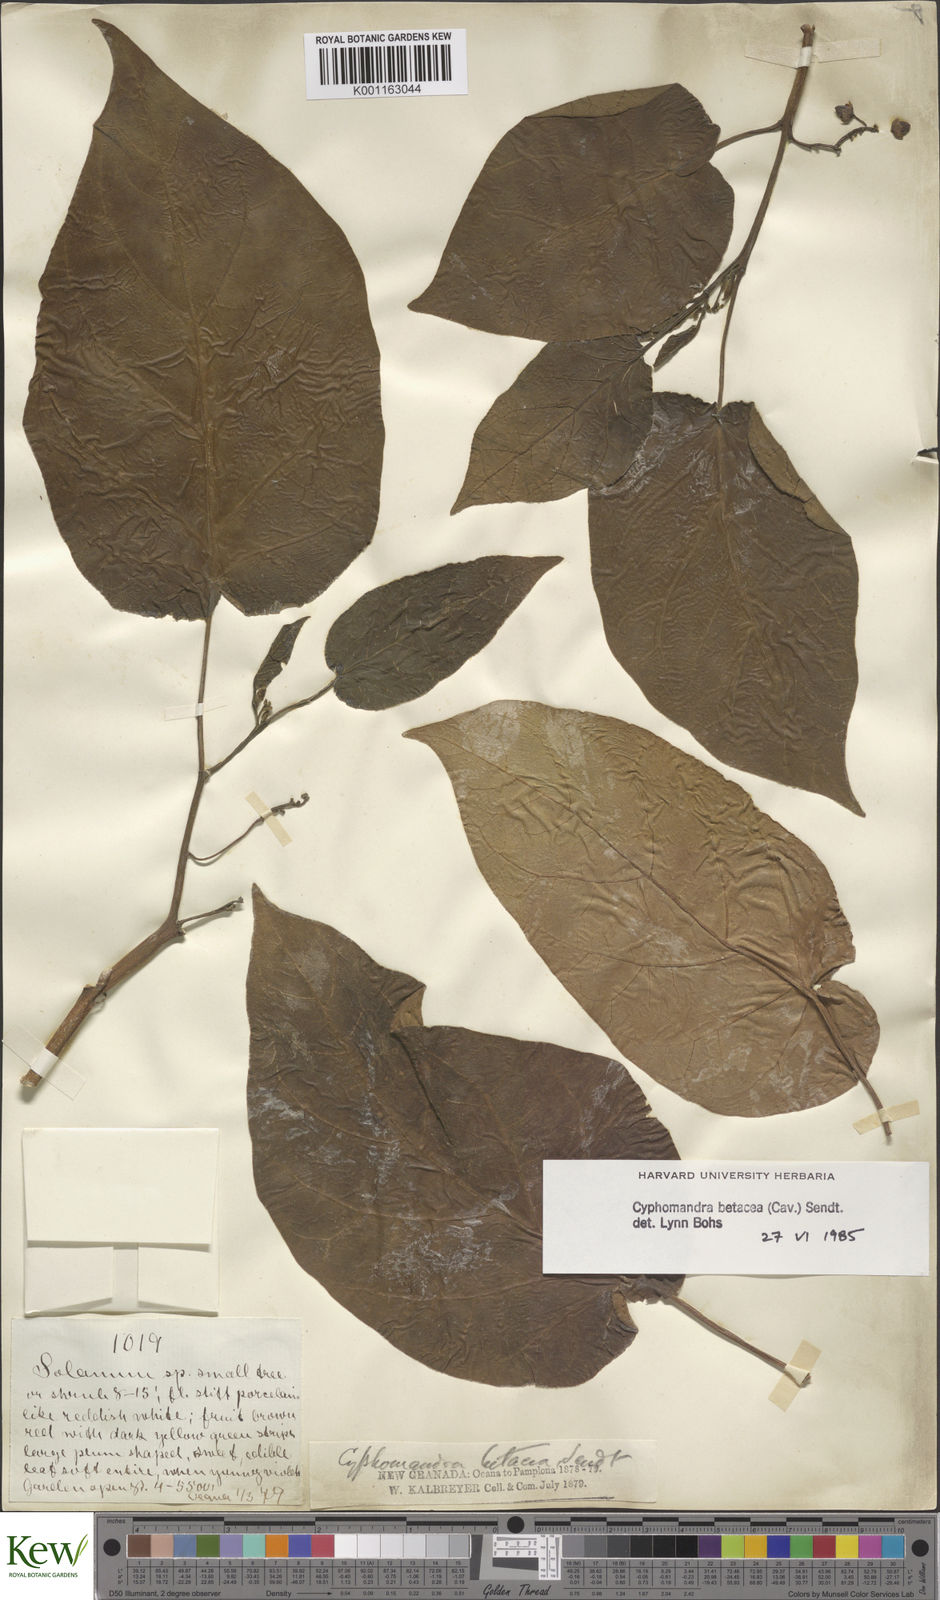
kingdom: Plantae
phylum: Tracheophyta
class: Magnoliopsida
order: Solanales
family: Solanaceae
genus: Solanum
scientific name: Solanum betaceum
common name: Tamarillo
